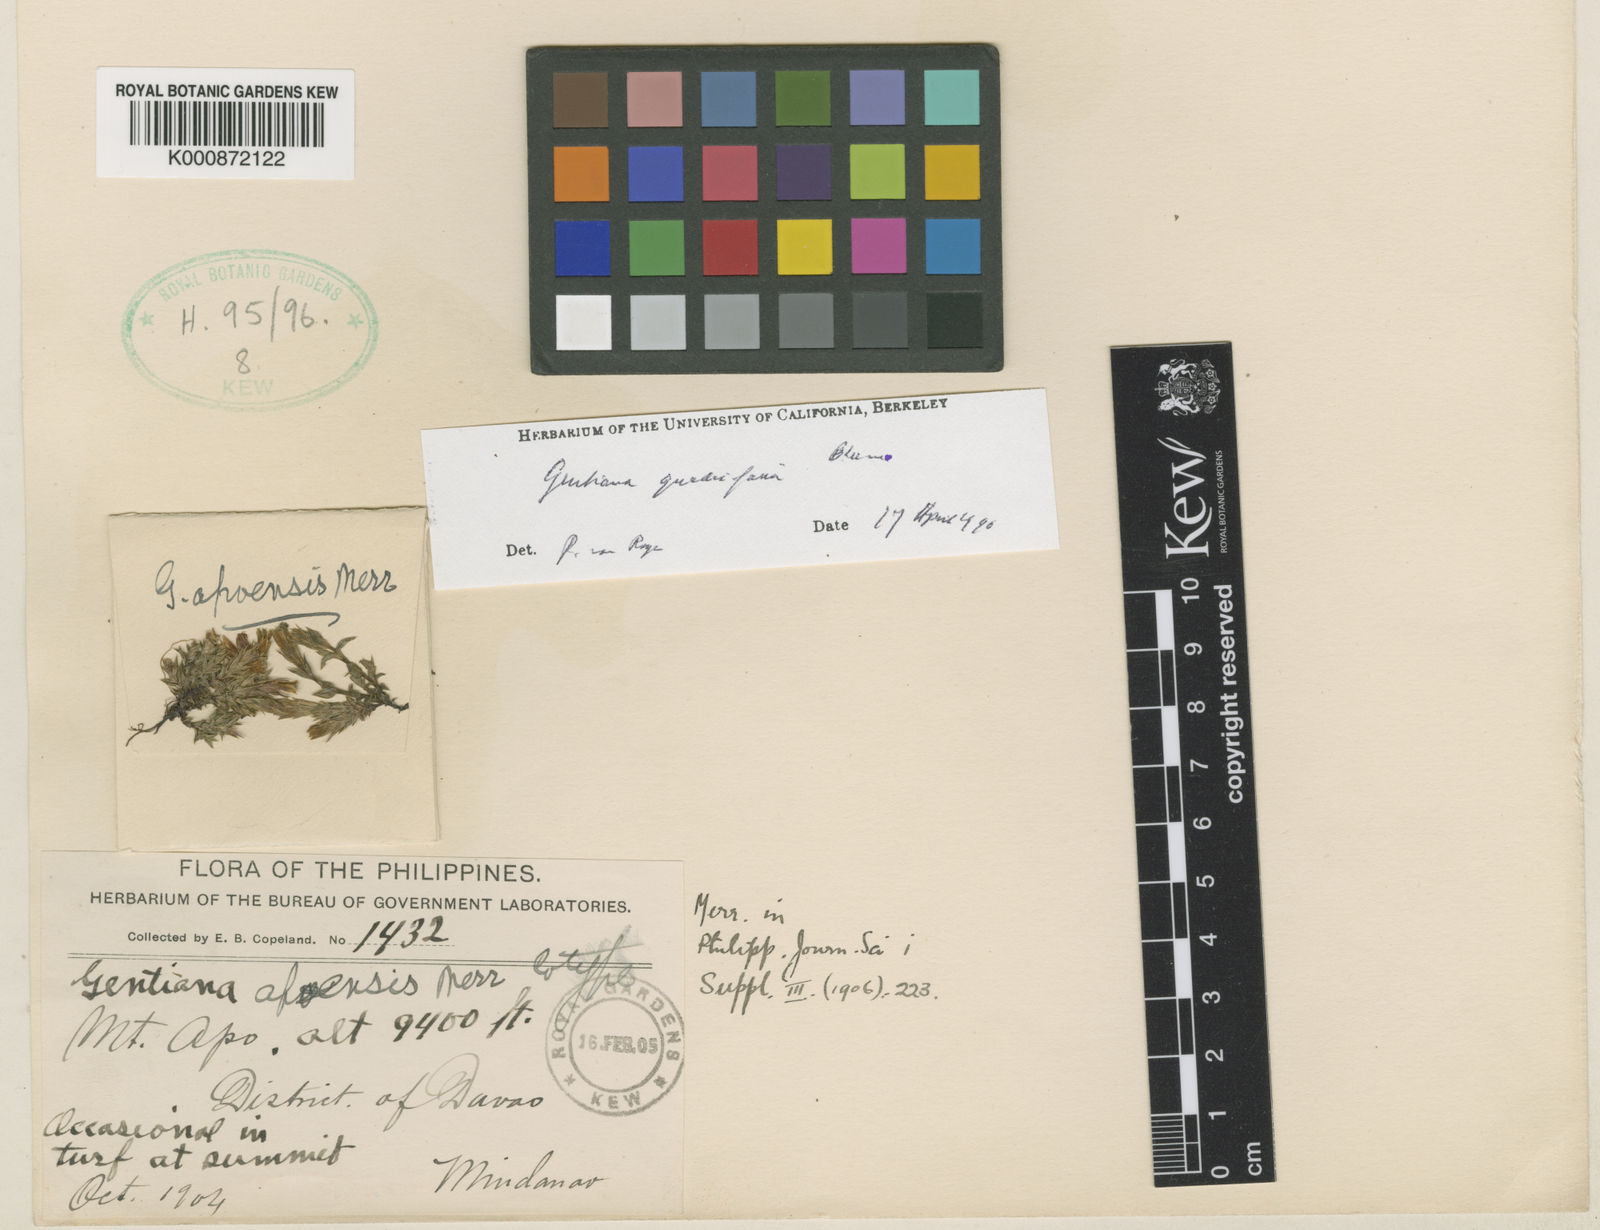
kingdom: Plantae
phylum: Tracheophyta
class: Magnoliopsida
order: Gentianales
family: Gentianaceae
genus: Gentiana
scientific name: Gentiana borneensis
